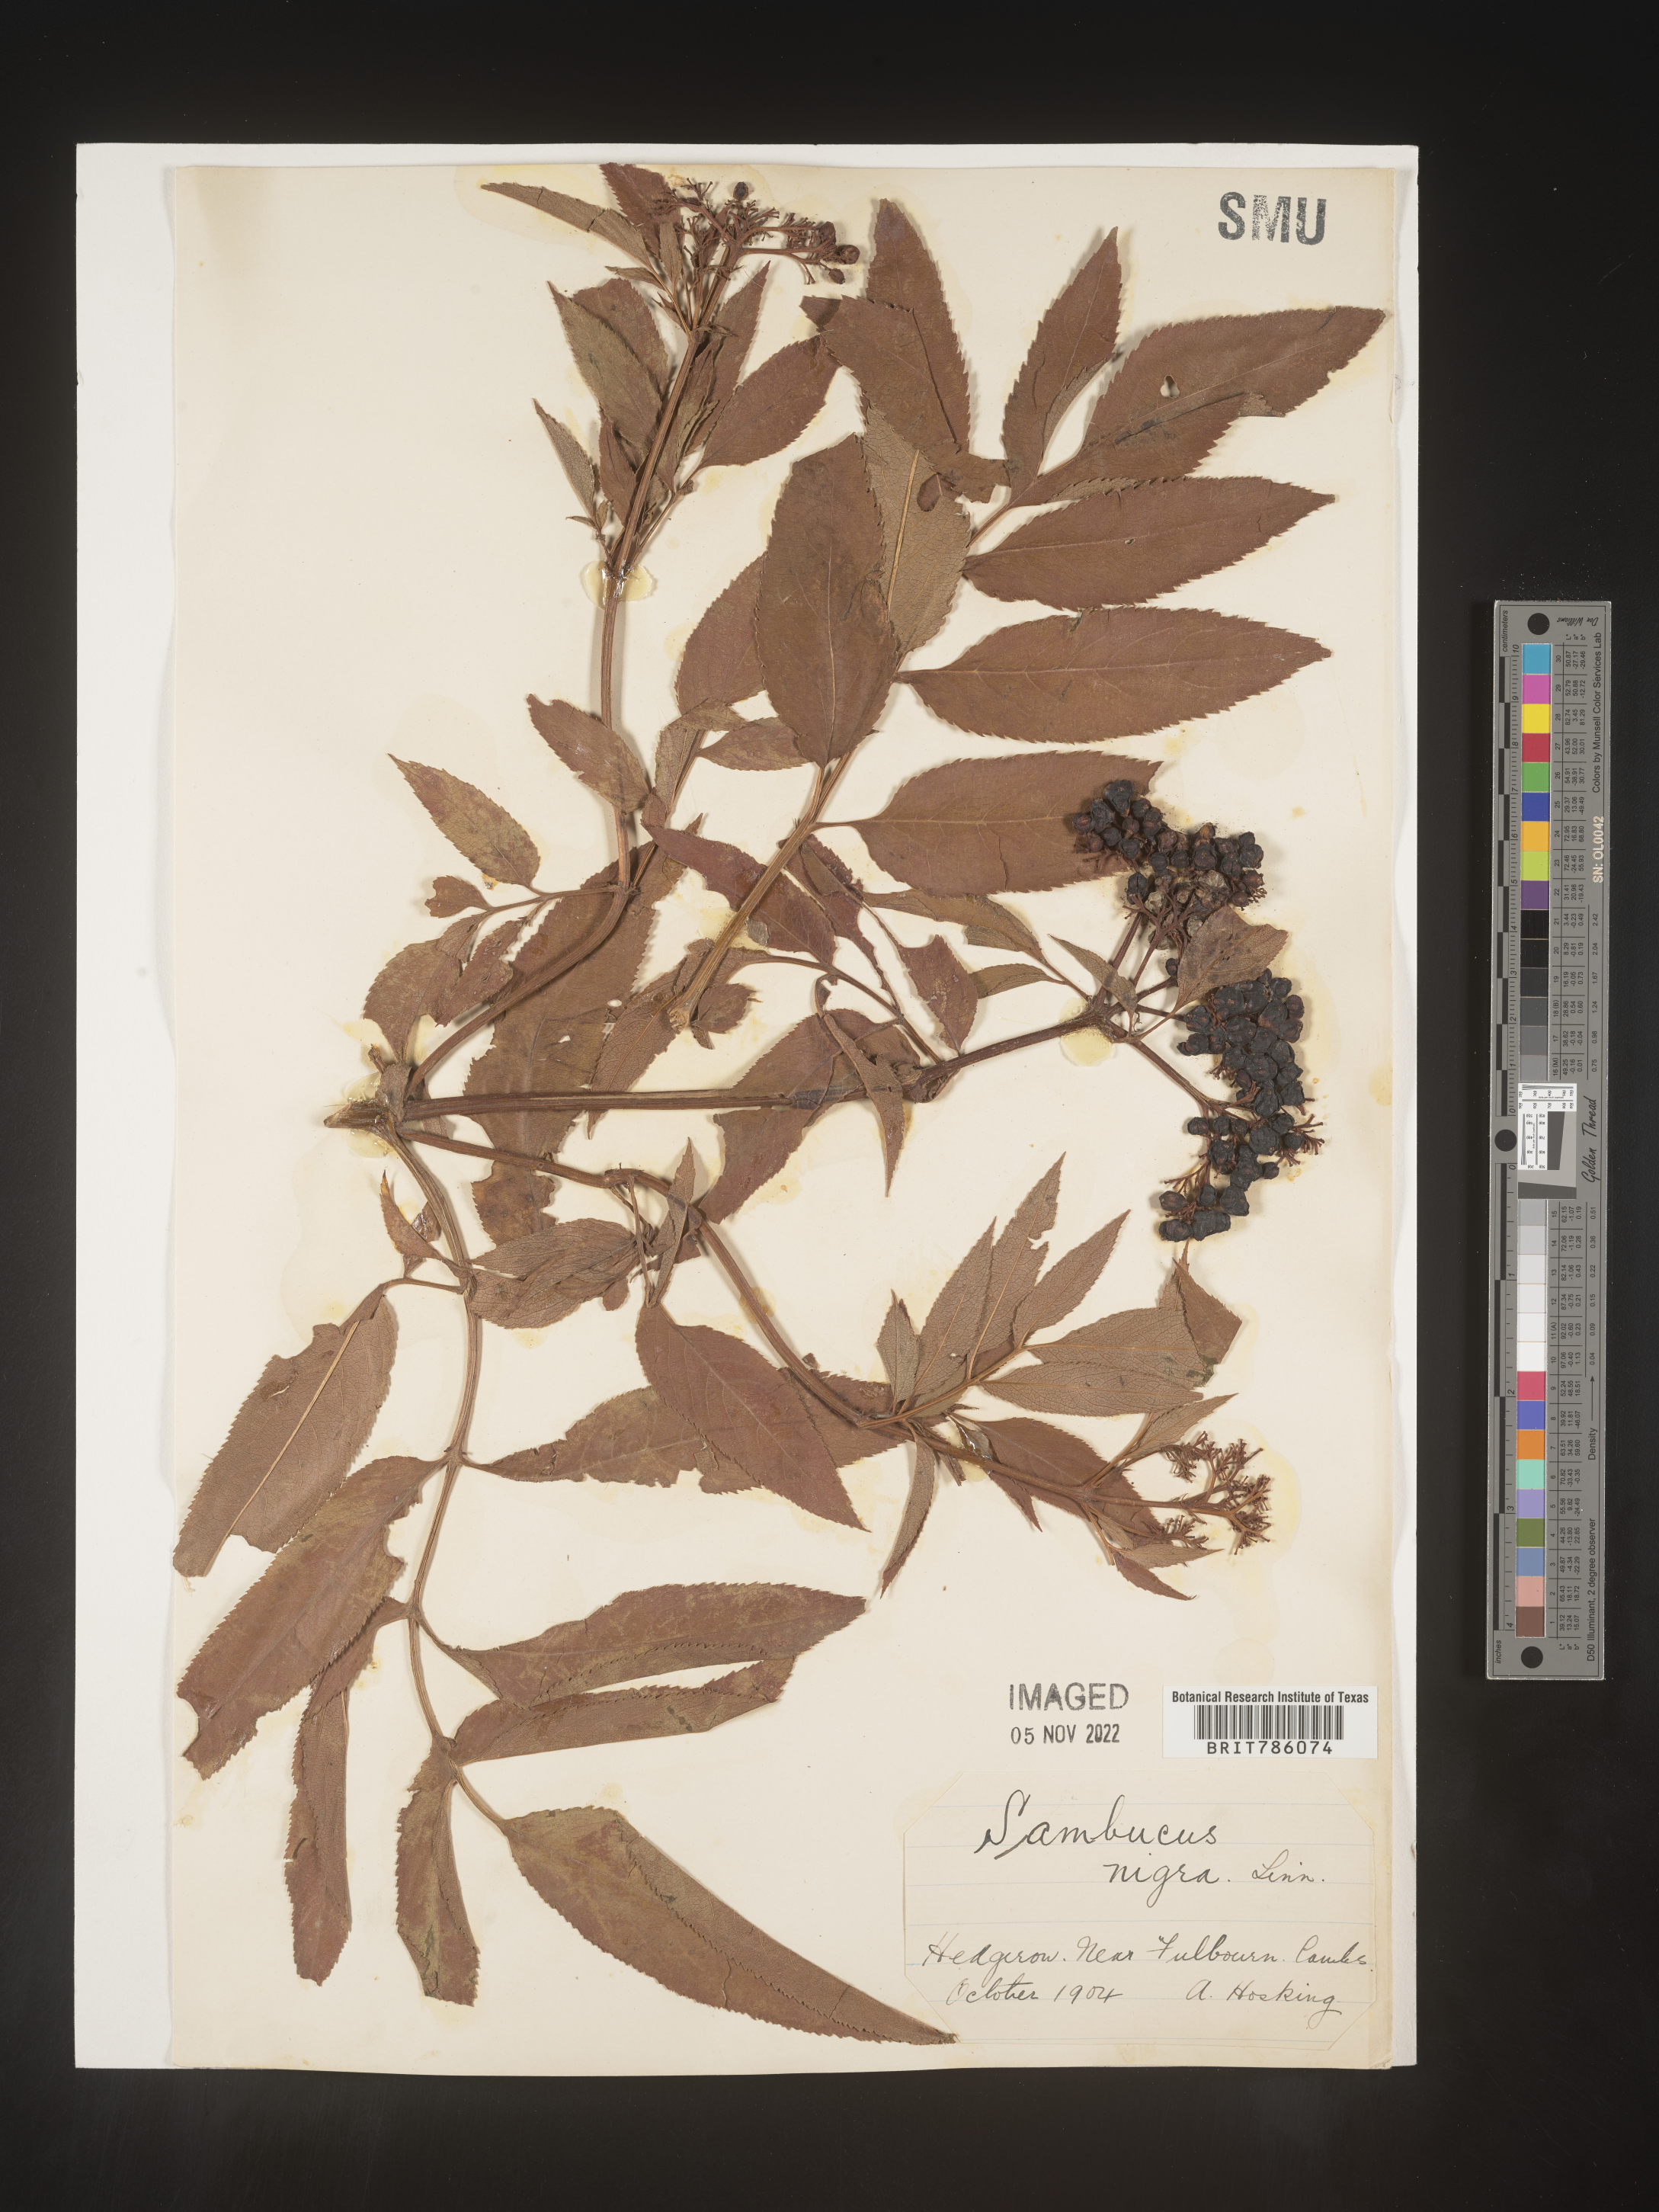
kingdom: Plantae
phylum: Tracheophyta
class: Magnoliopsida
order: Dipsacales
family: Viburnaceae
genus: Sambucus
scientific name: Sambucus
